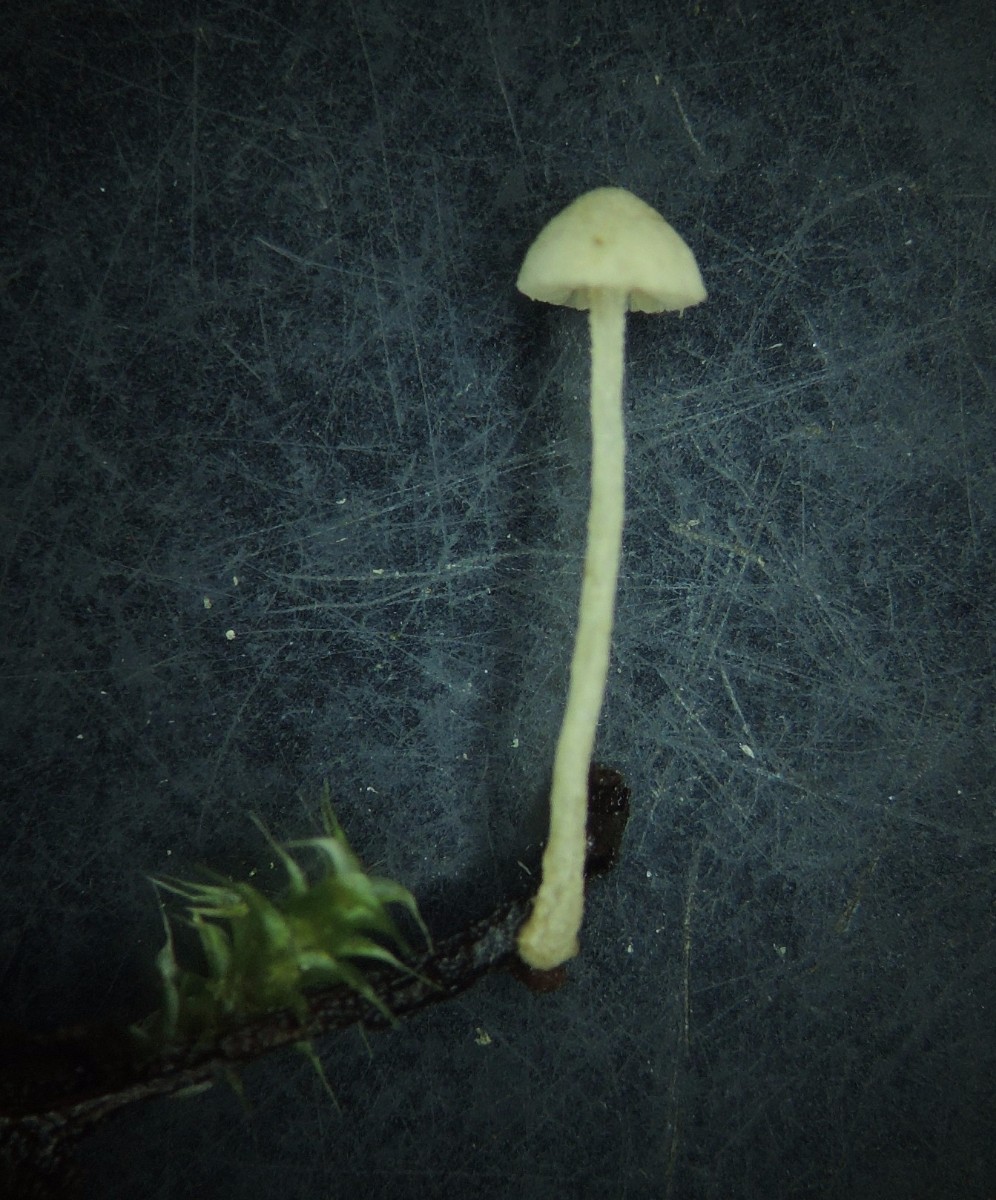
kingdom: Fungi
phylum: Basidiomycota
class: Agaricomycetes
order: Agaricales
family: Tubariaceae
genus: Flammulaster
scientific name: Flammulaster carpophilus
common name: bøge-grynskælhat
